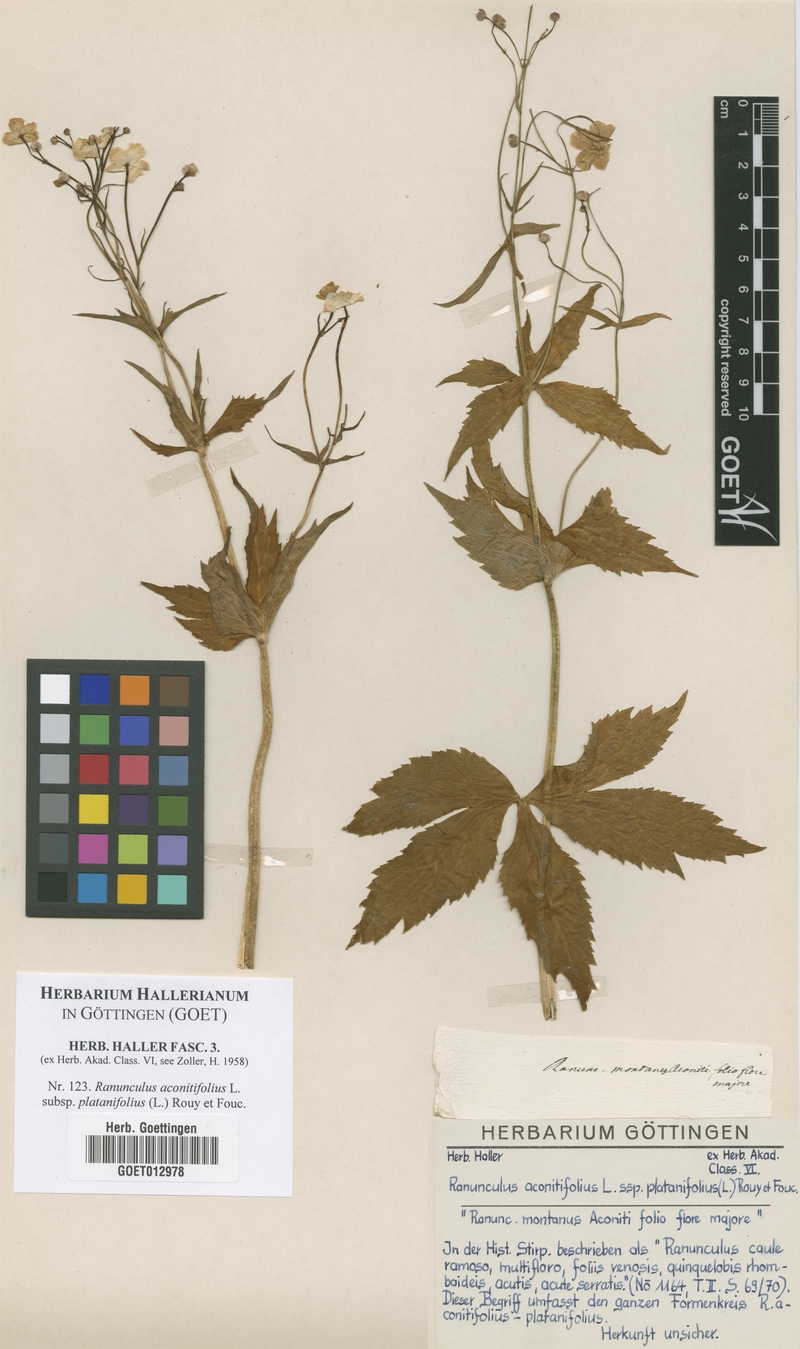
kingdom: Plantae
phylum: Tracheophyta
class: Magnoliopsida
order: Ranunculales
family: Ranunculaceae
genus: Ranunculus
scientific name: Ranunculus platanifolius
